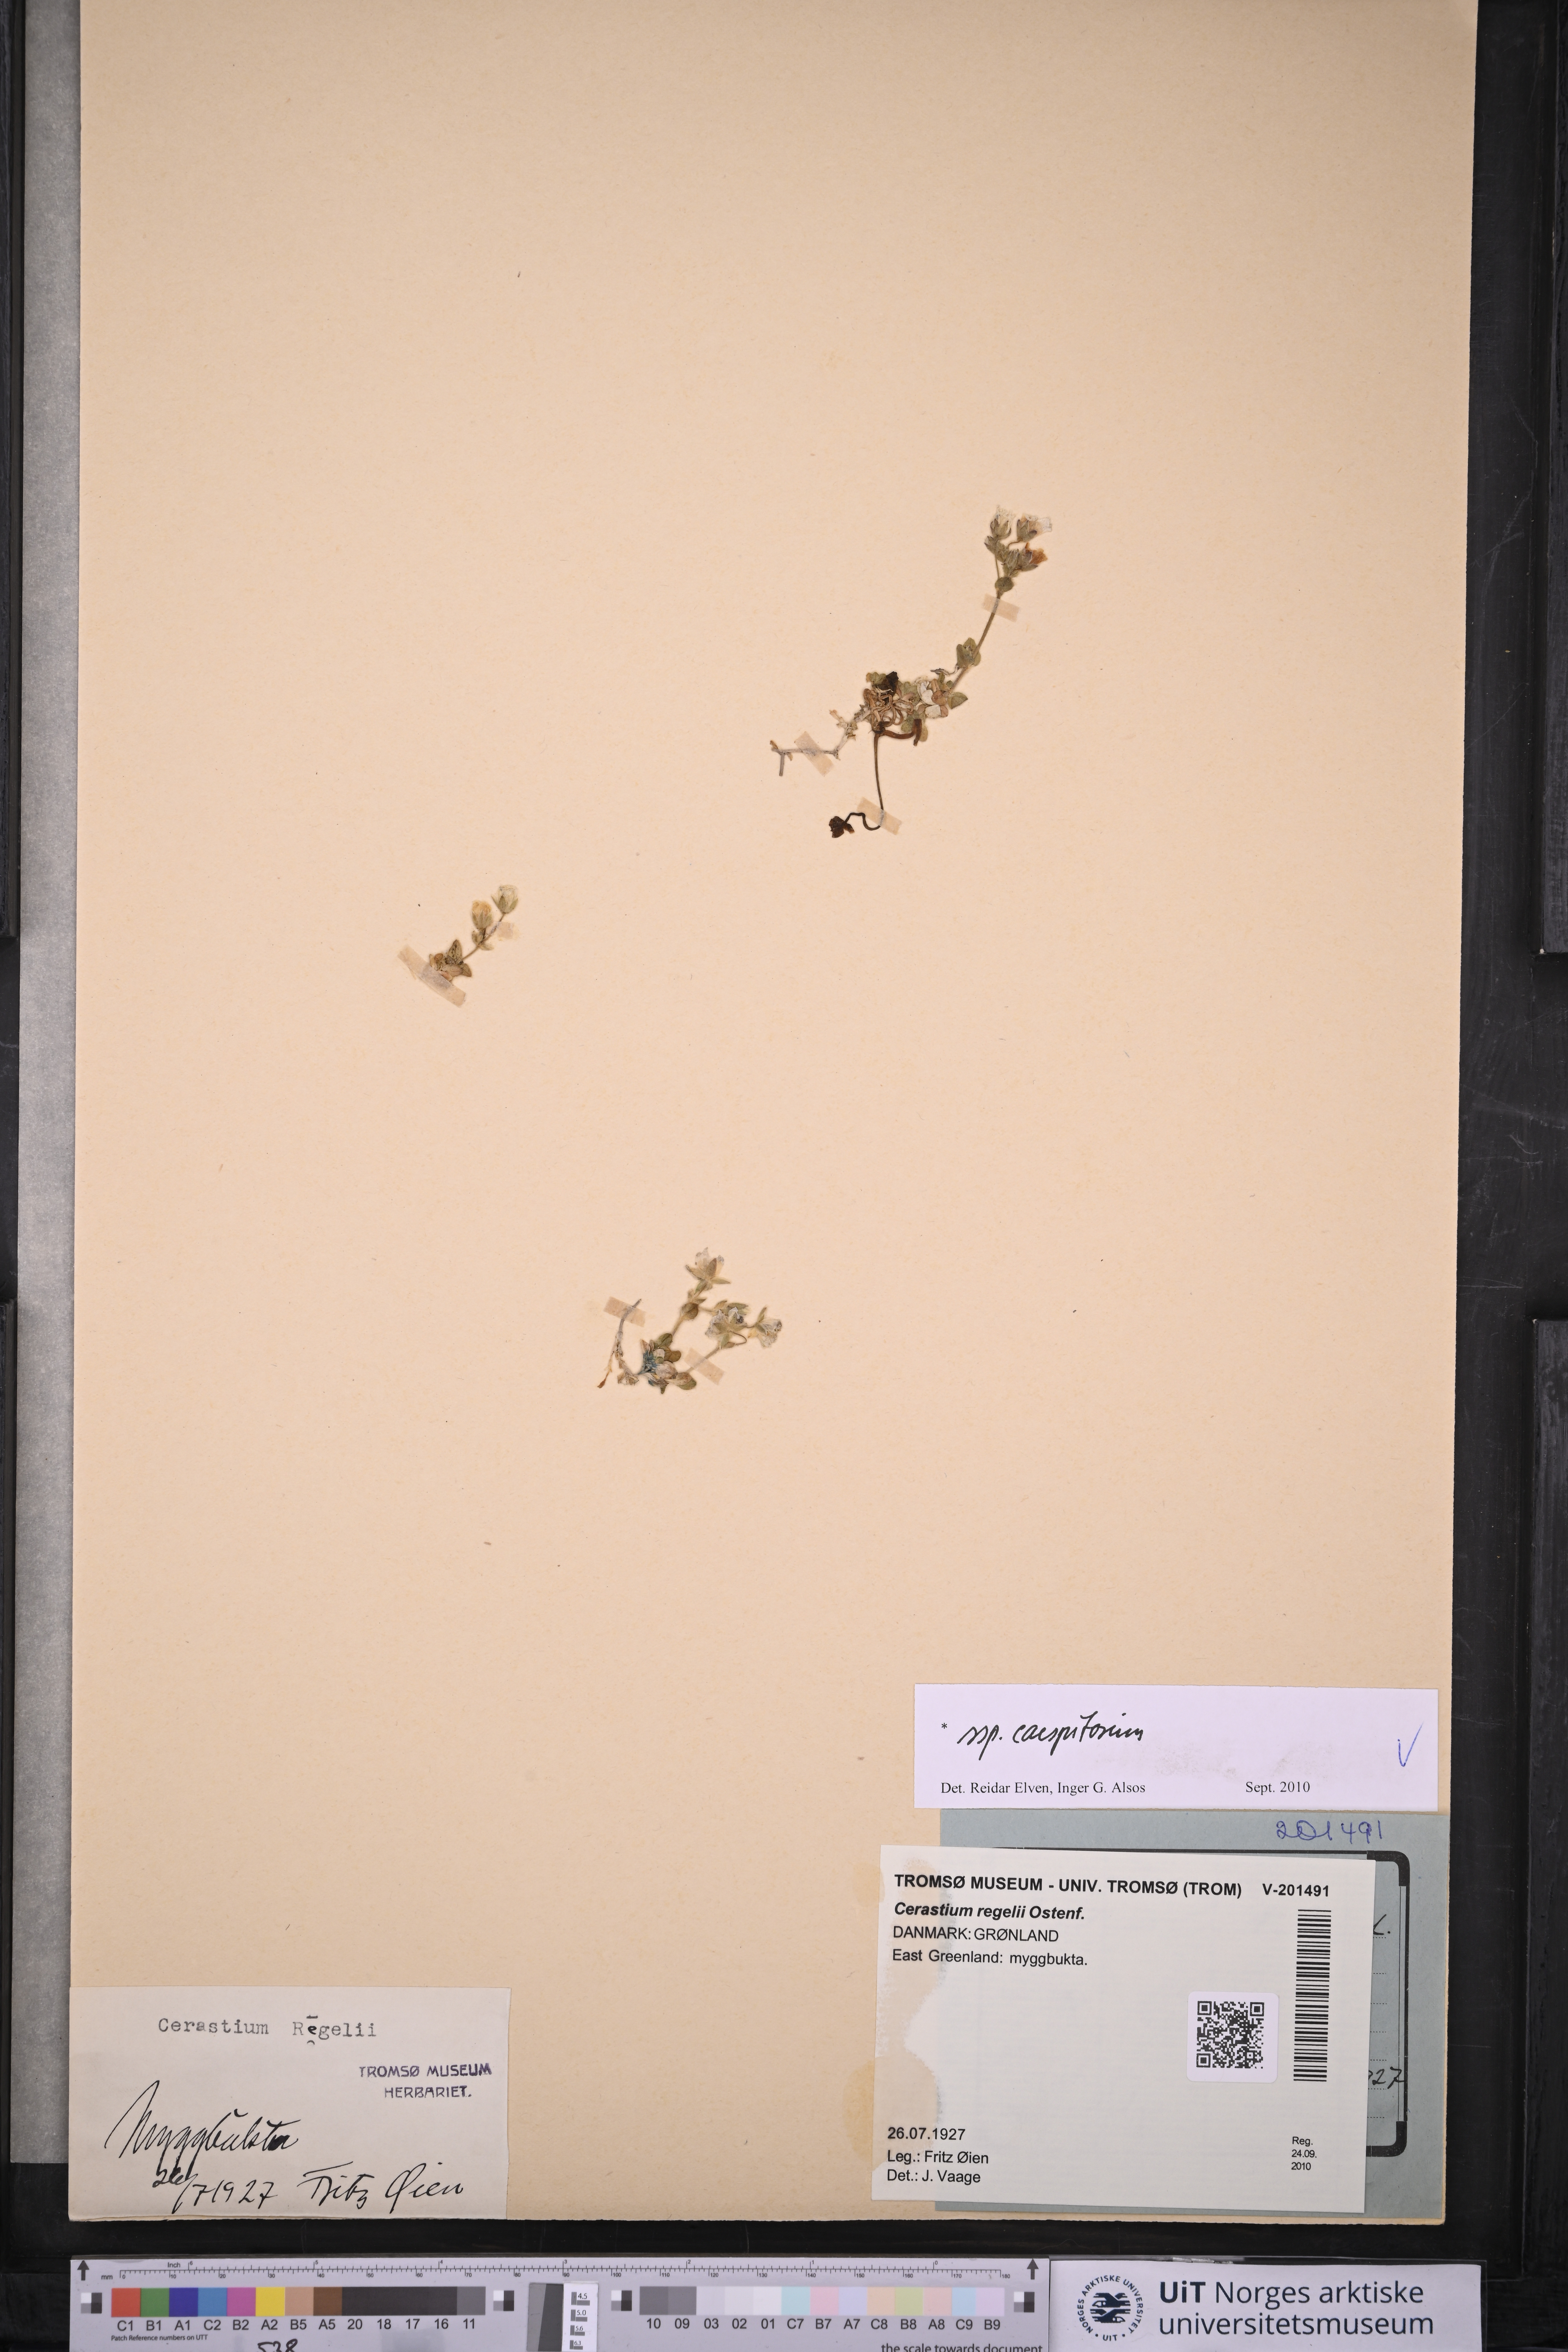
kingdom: Plantae
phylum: Tracheophyta
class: Magnoliopsida
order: Caryophyllales
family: Caryophyllaceae
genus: Cerastium
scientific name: Cerastium regelii
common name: Regel's chickweed
